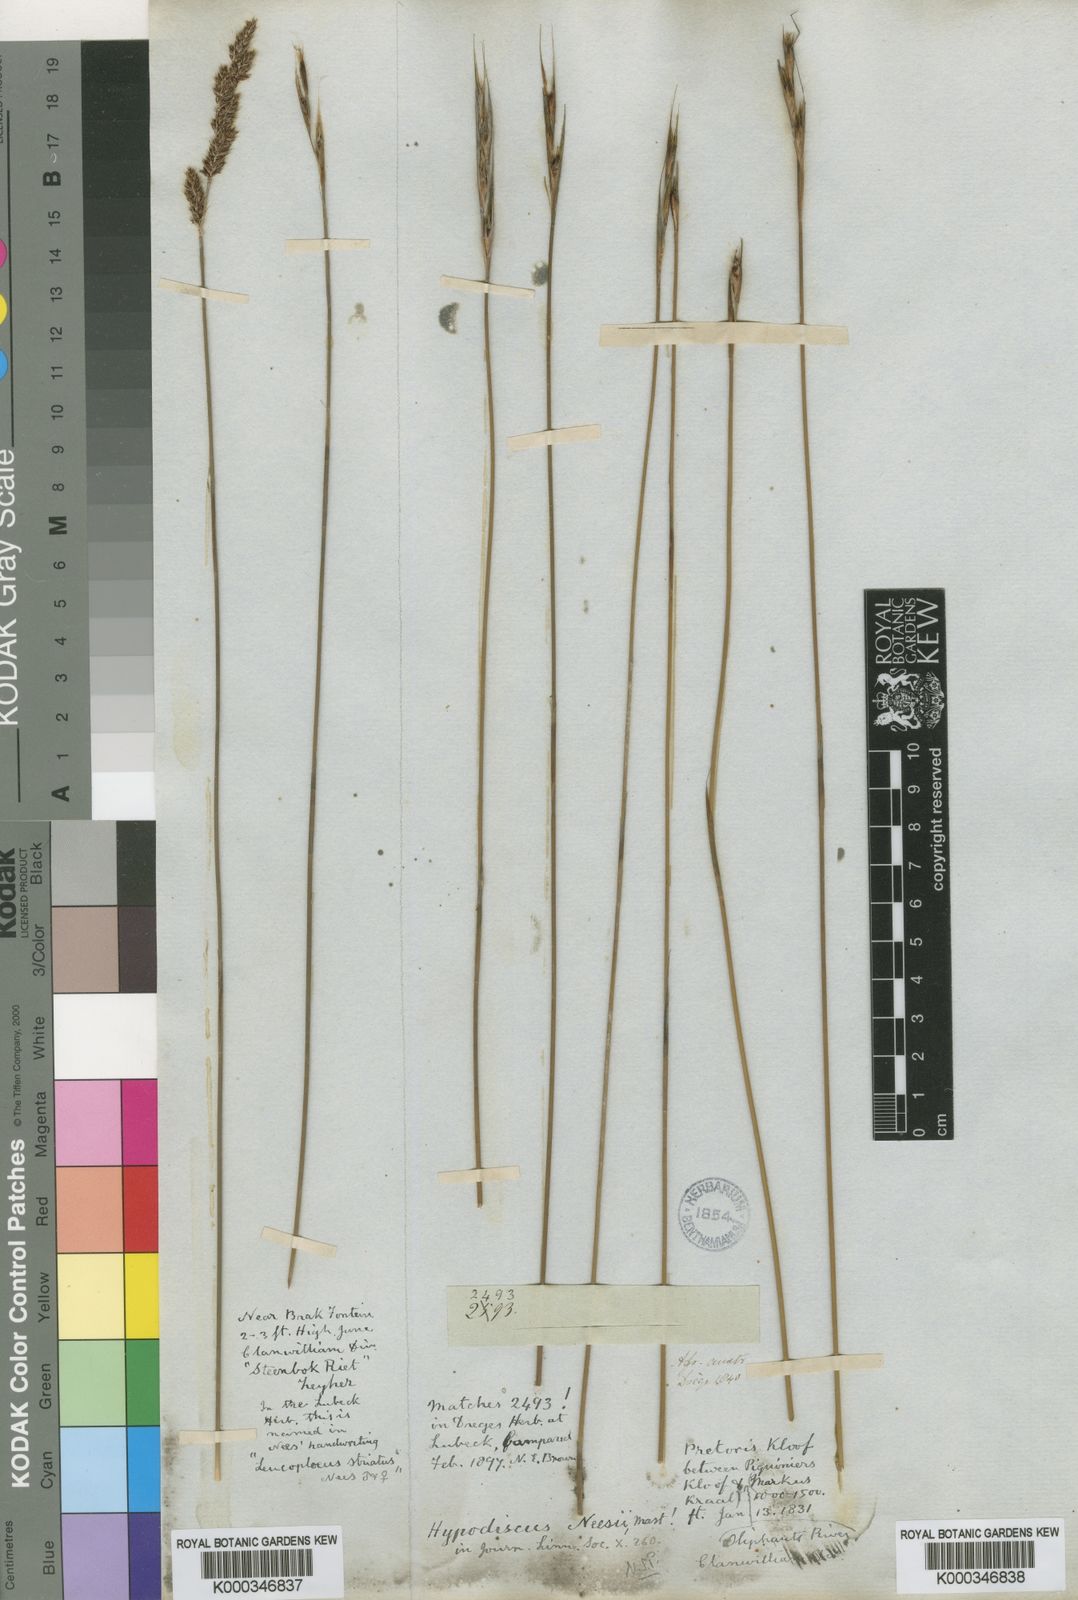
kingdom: Plantae
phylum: Tracheophyta
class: Liliopsida
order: Poales
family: Restionaceae
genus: Hypodiscus
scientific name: Hypodiscus neesii
